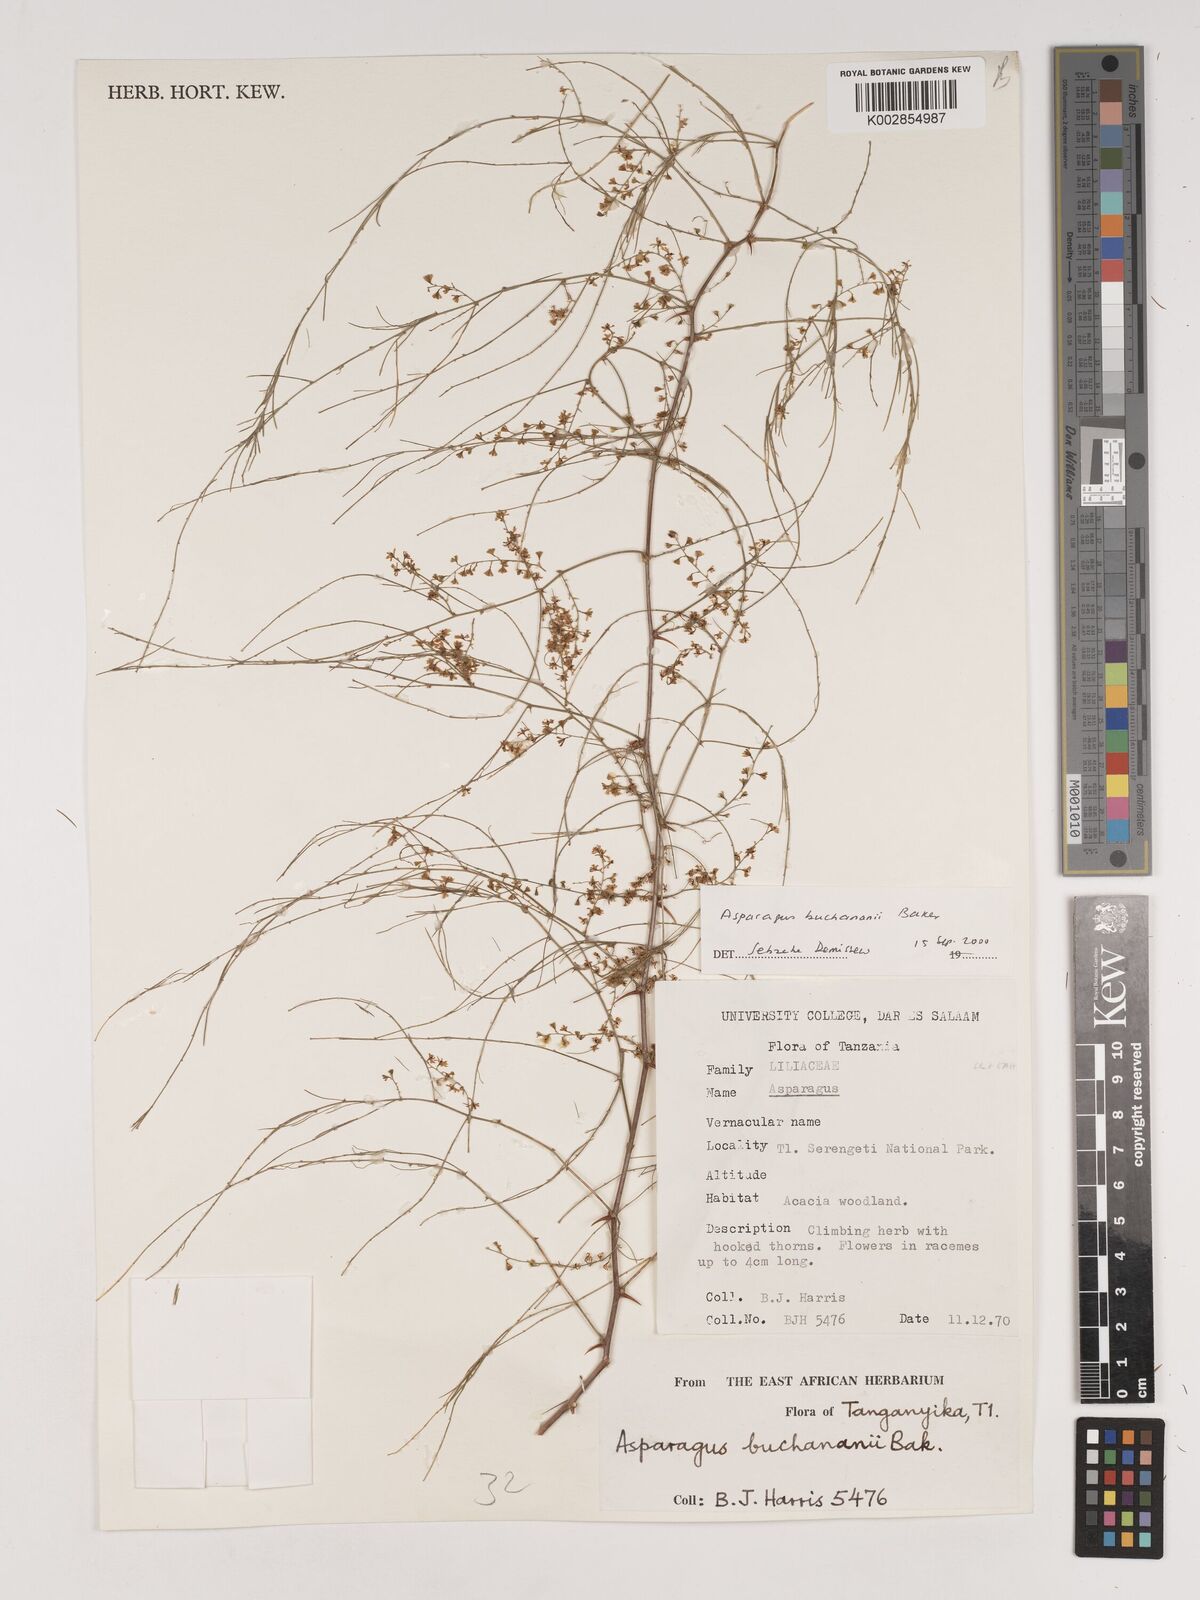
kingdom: Plantae
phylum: Tracheophyta
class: Liliopsida
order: Asparagales
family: Asparagaceae
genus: Asparagus
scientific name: Asparagus buchananii
